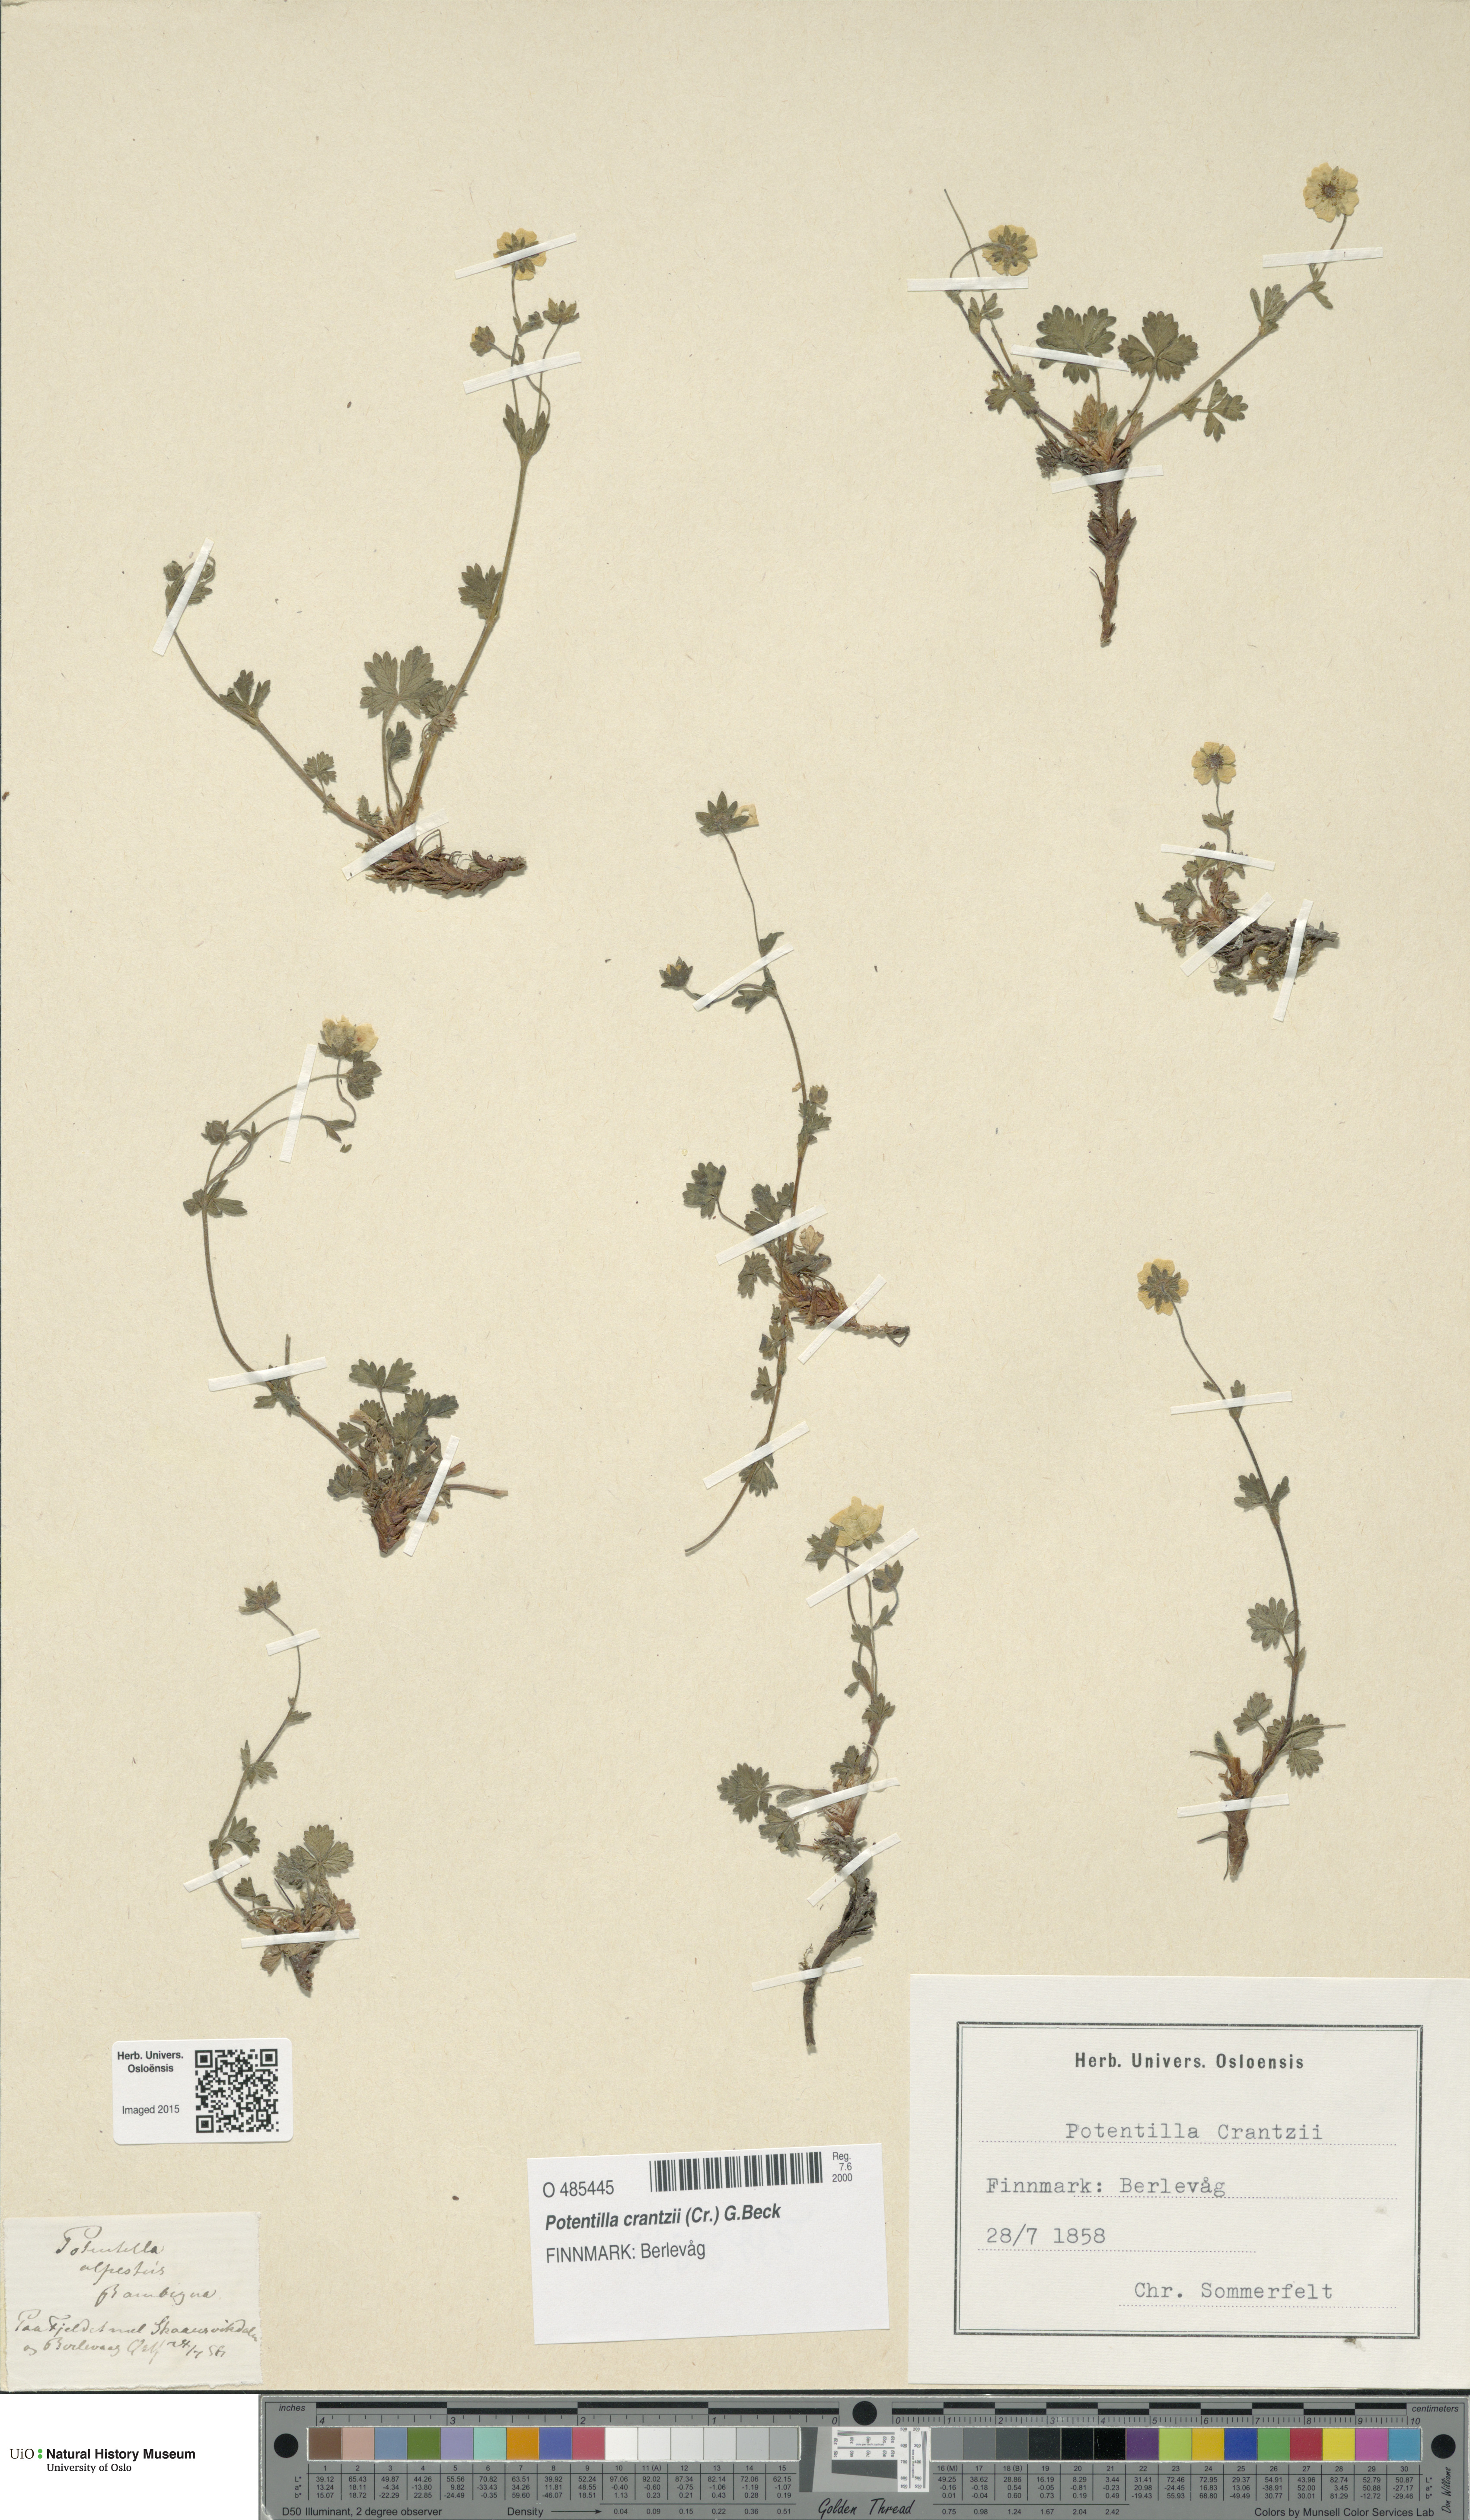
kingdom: Plantae
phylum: Tracheophyta
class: Magnoliopsida
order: Rosales
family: Rosaceae
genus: Potentilla
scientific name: Potentilla crantzii
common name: Alpine cinquefoil
